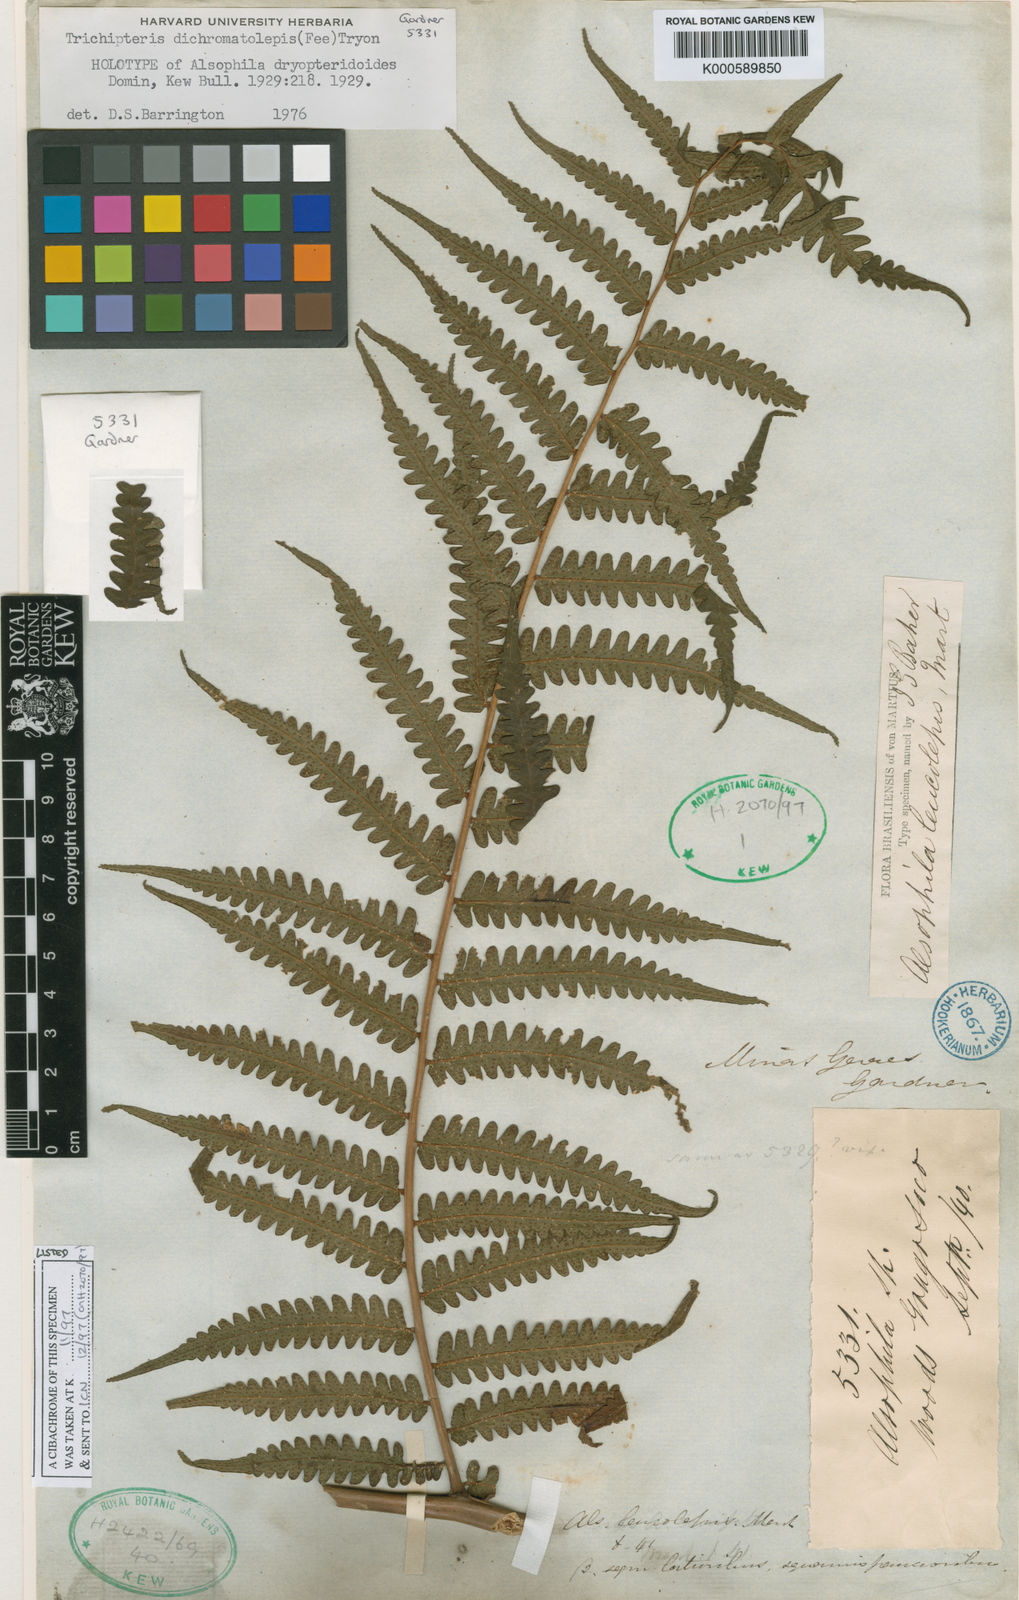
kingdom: Plantae
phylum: Tracheophyta
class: Polypodiopsida
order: Cyatheales
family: Cyatheaceae
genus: Cyathea
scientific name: Cyathea
